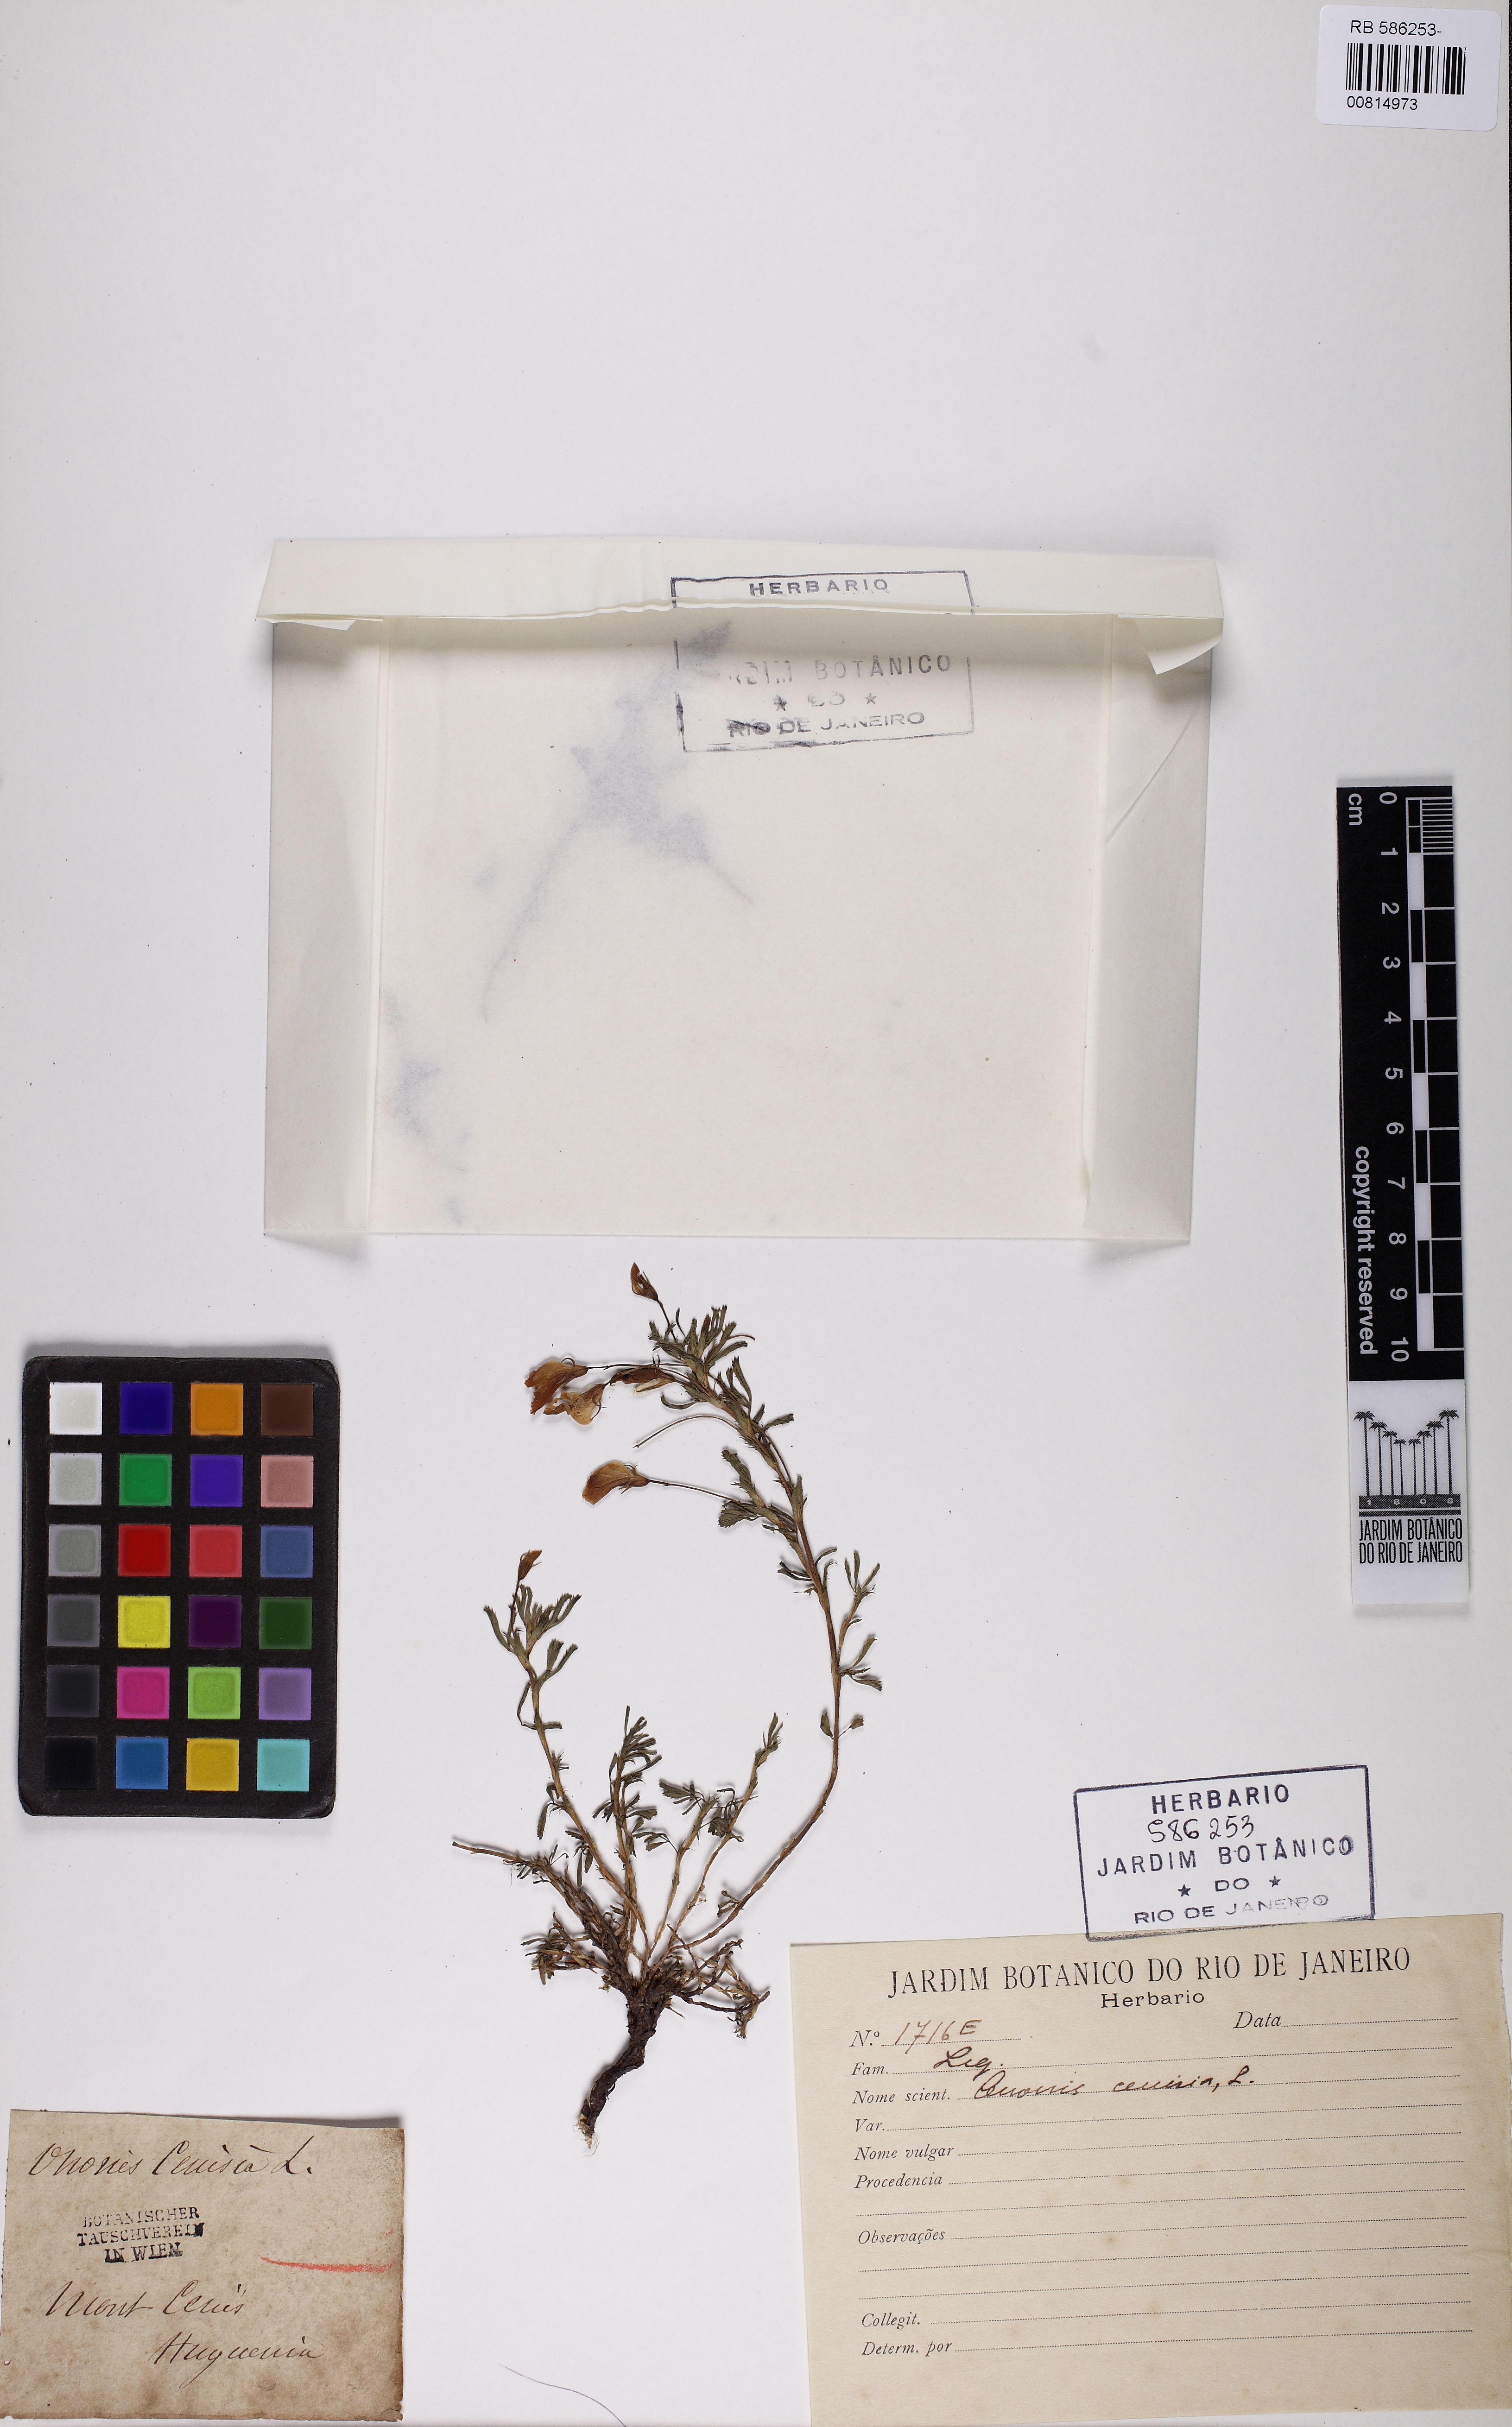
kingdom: Plantae
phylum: Tracheophyta
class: Magnoliopsida
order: Fabales
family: Fabaceae
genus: Ononis
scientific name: Ononis cristata
